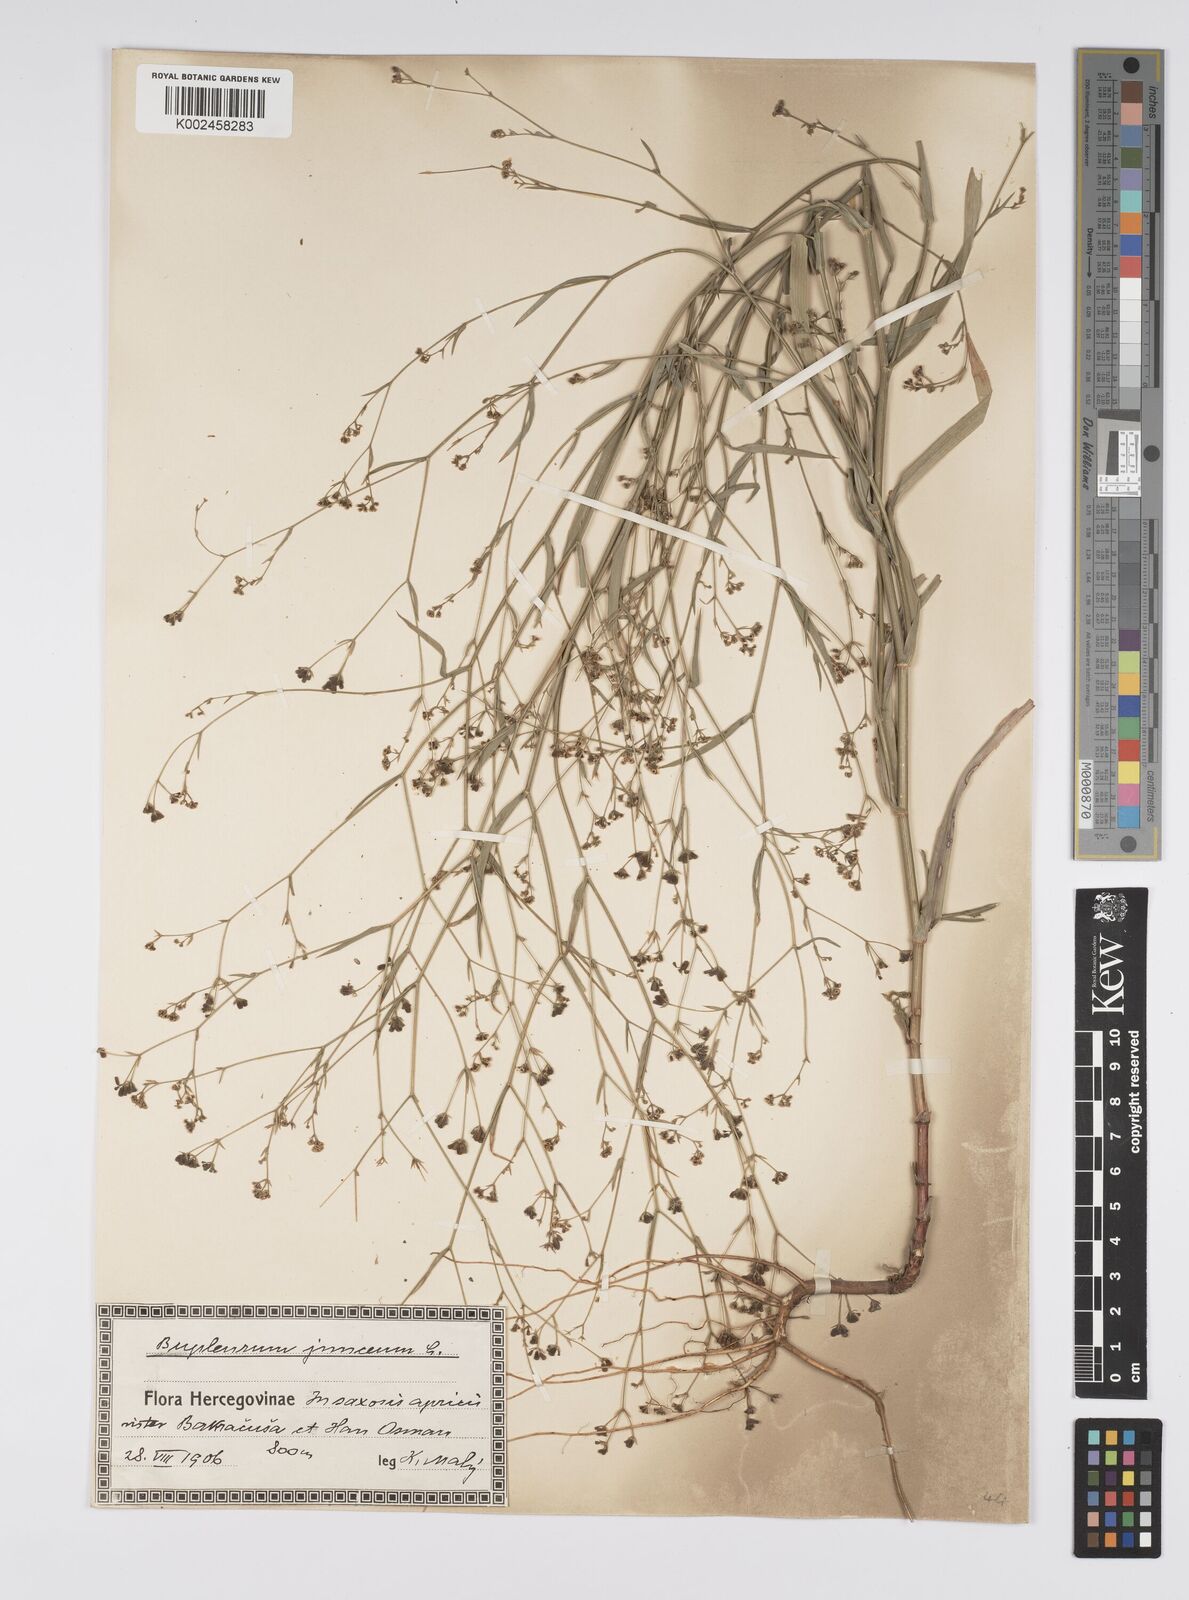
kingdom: Plantae
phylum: Tracheophyta
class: Magnoliopsida
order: Apiales
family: Apiaceae
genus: Bupleurum
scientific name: Bupleurum praealtum
